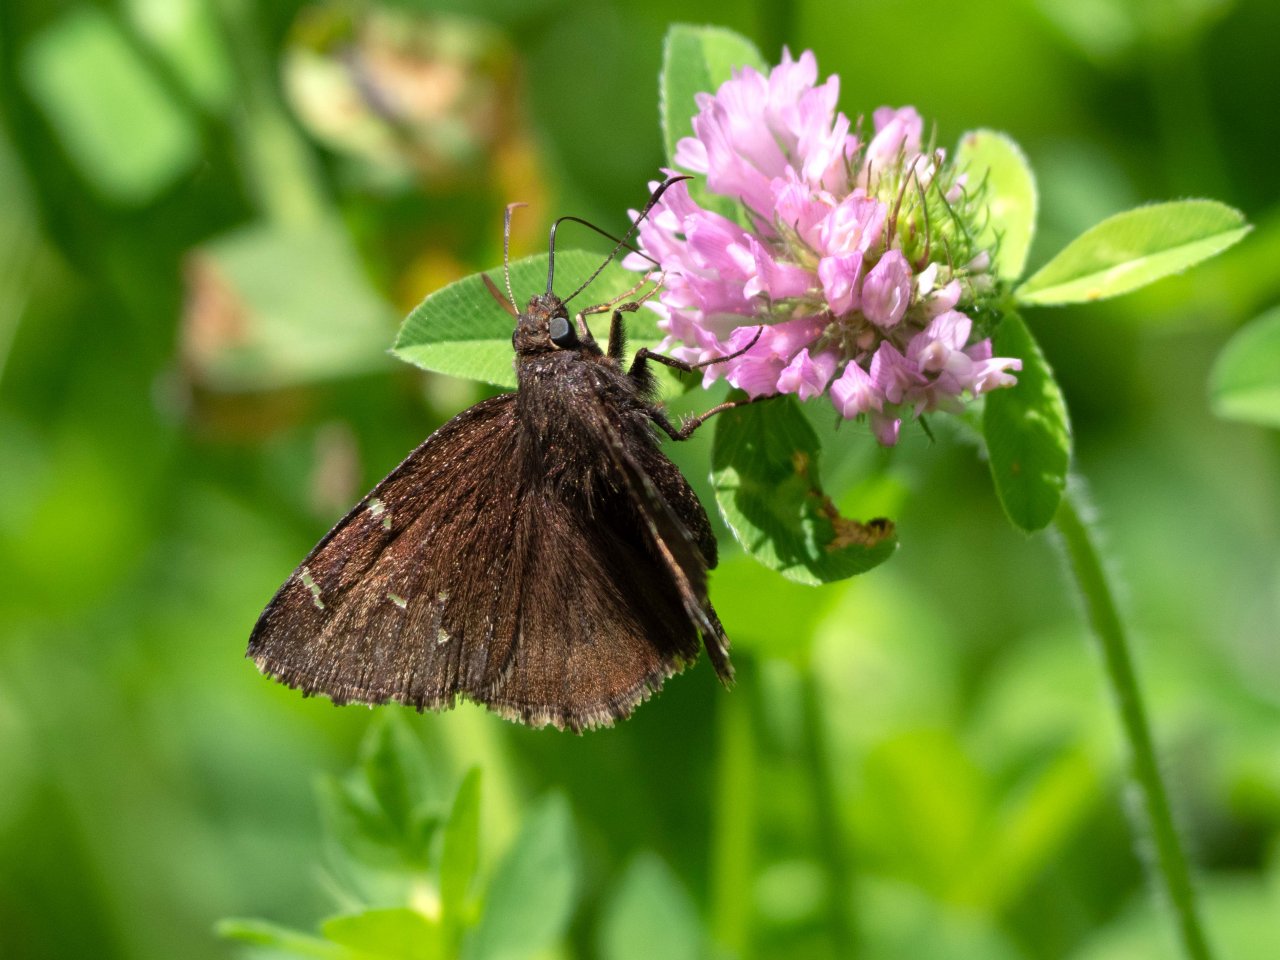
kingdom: Animalia
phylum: Arthropoda
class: Insecta
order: Lepidoptera
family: Hesperiidae
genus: Autochton
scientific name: Autochton
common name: Northern Cloudywing
